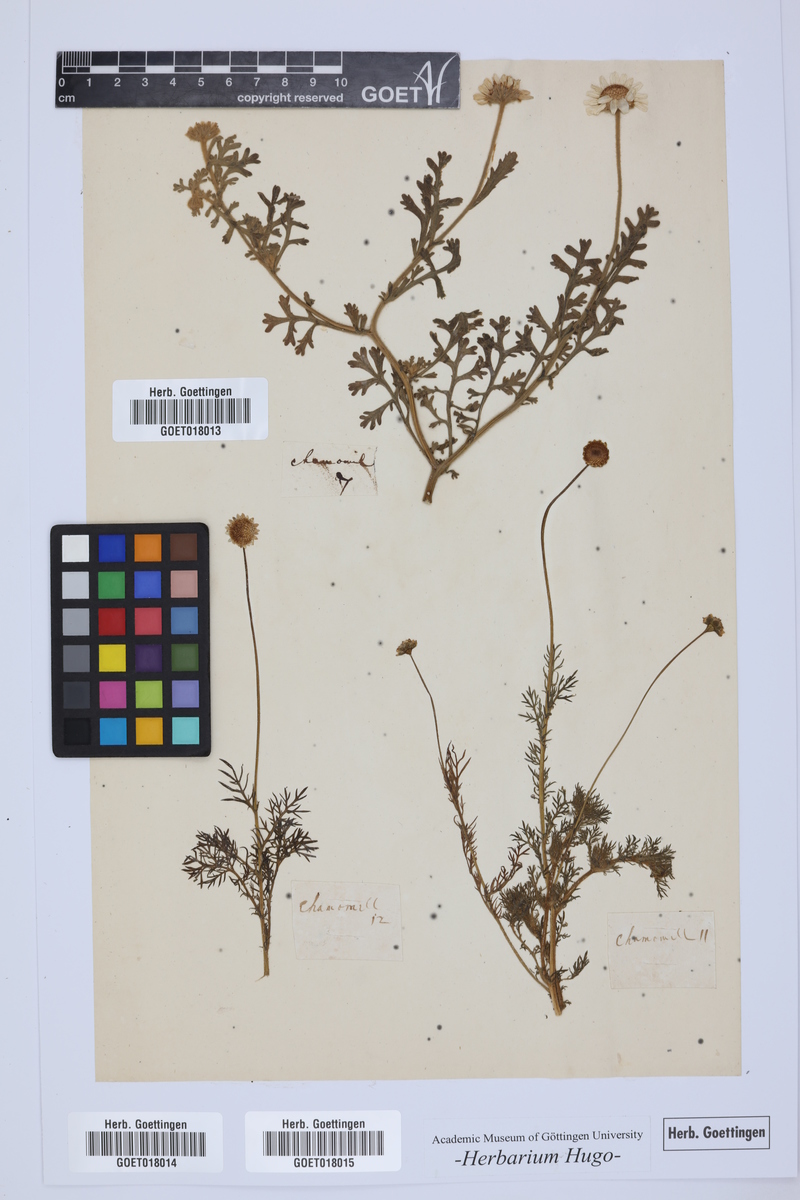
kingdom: Plantae
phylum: Tracheophyta
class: Magnoliopsida
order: Asterales
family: Asteraceae
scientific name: Asteraceae
